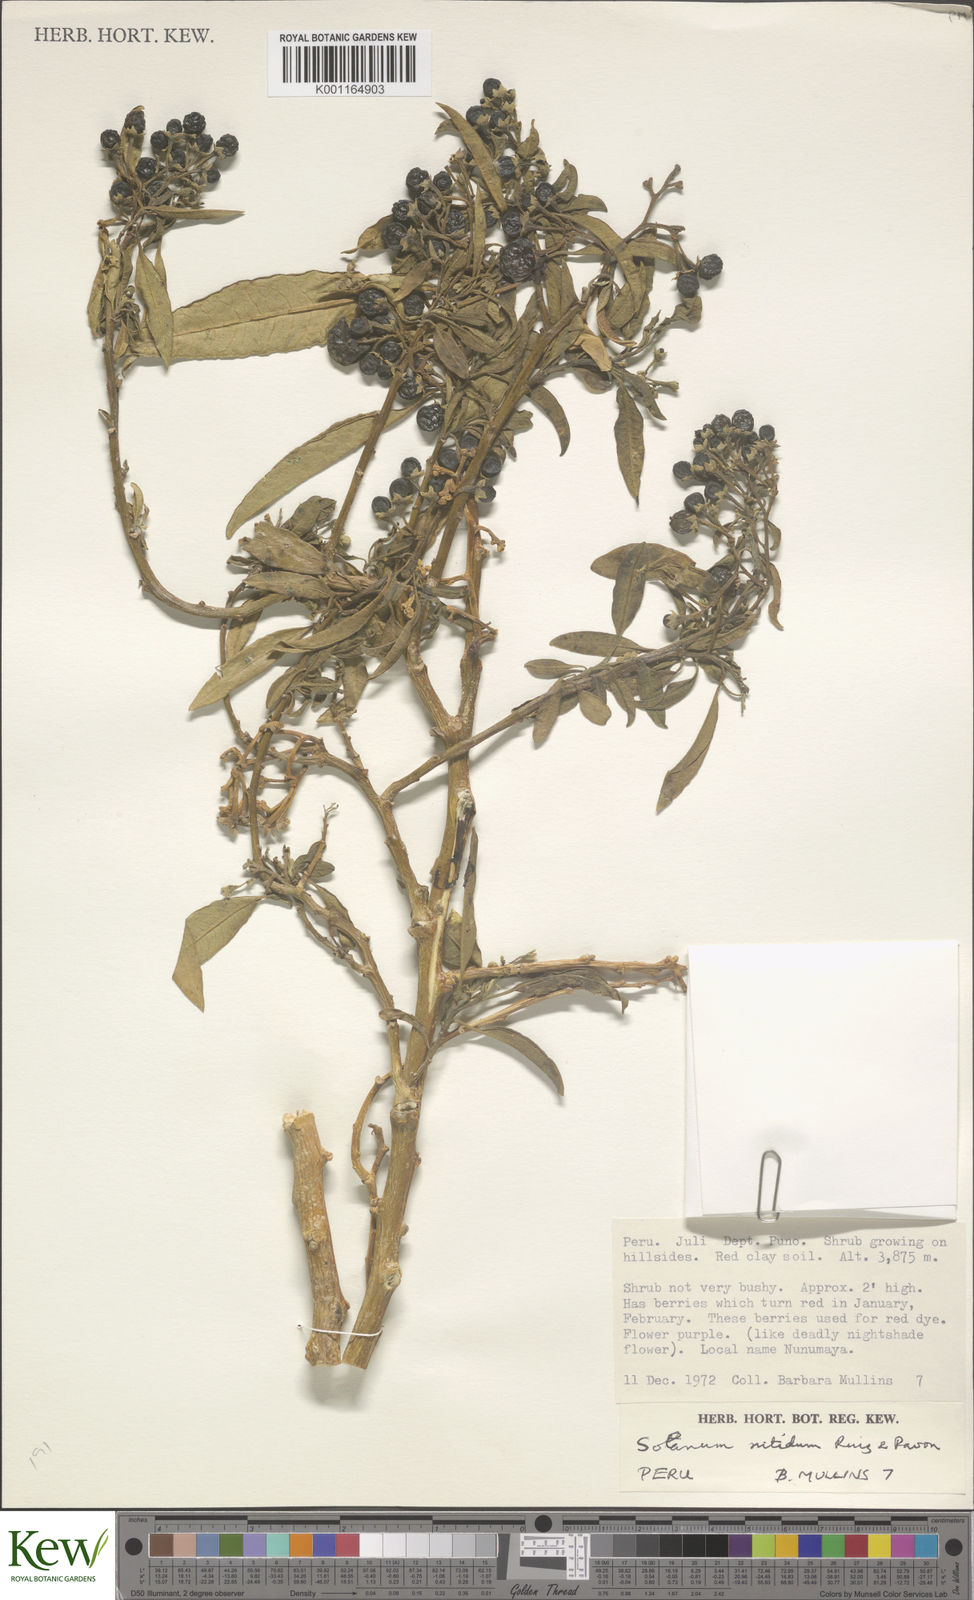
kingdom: Plantae
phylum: Tracheophyta
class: Magnoliopsida
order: Solanales
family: Solanaceae
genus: Solanum
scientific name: Solanum nitidum
